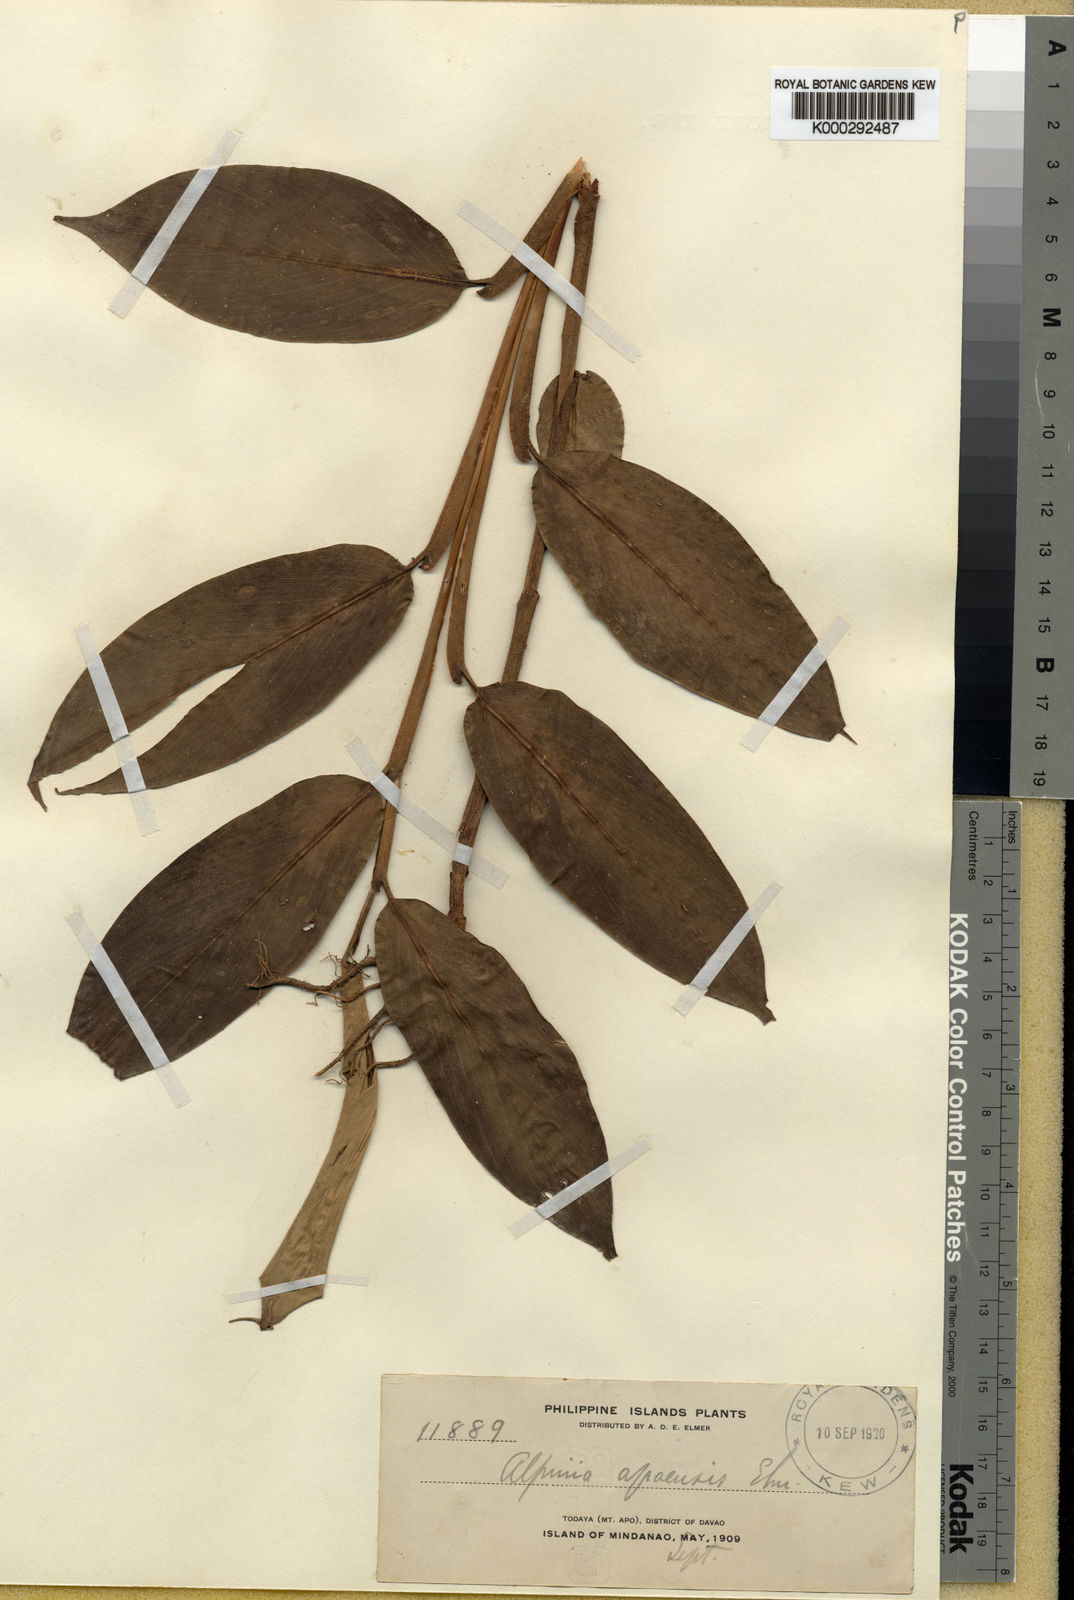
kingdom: Plantae
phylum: Tracheophyta
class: Liliopsida
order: Zingiberales
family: Zingiberaceae
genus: Alpinia
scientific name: Alpinia apoensis
